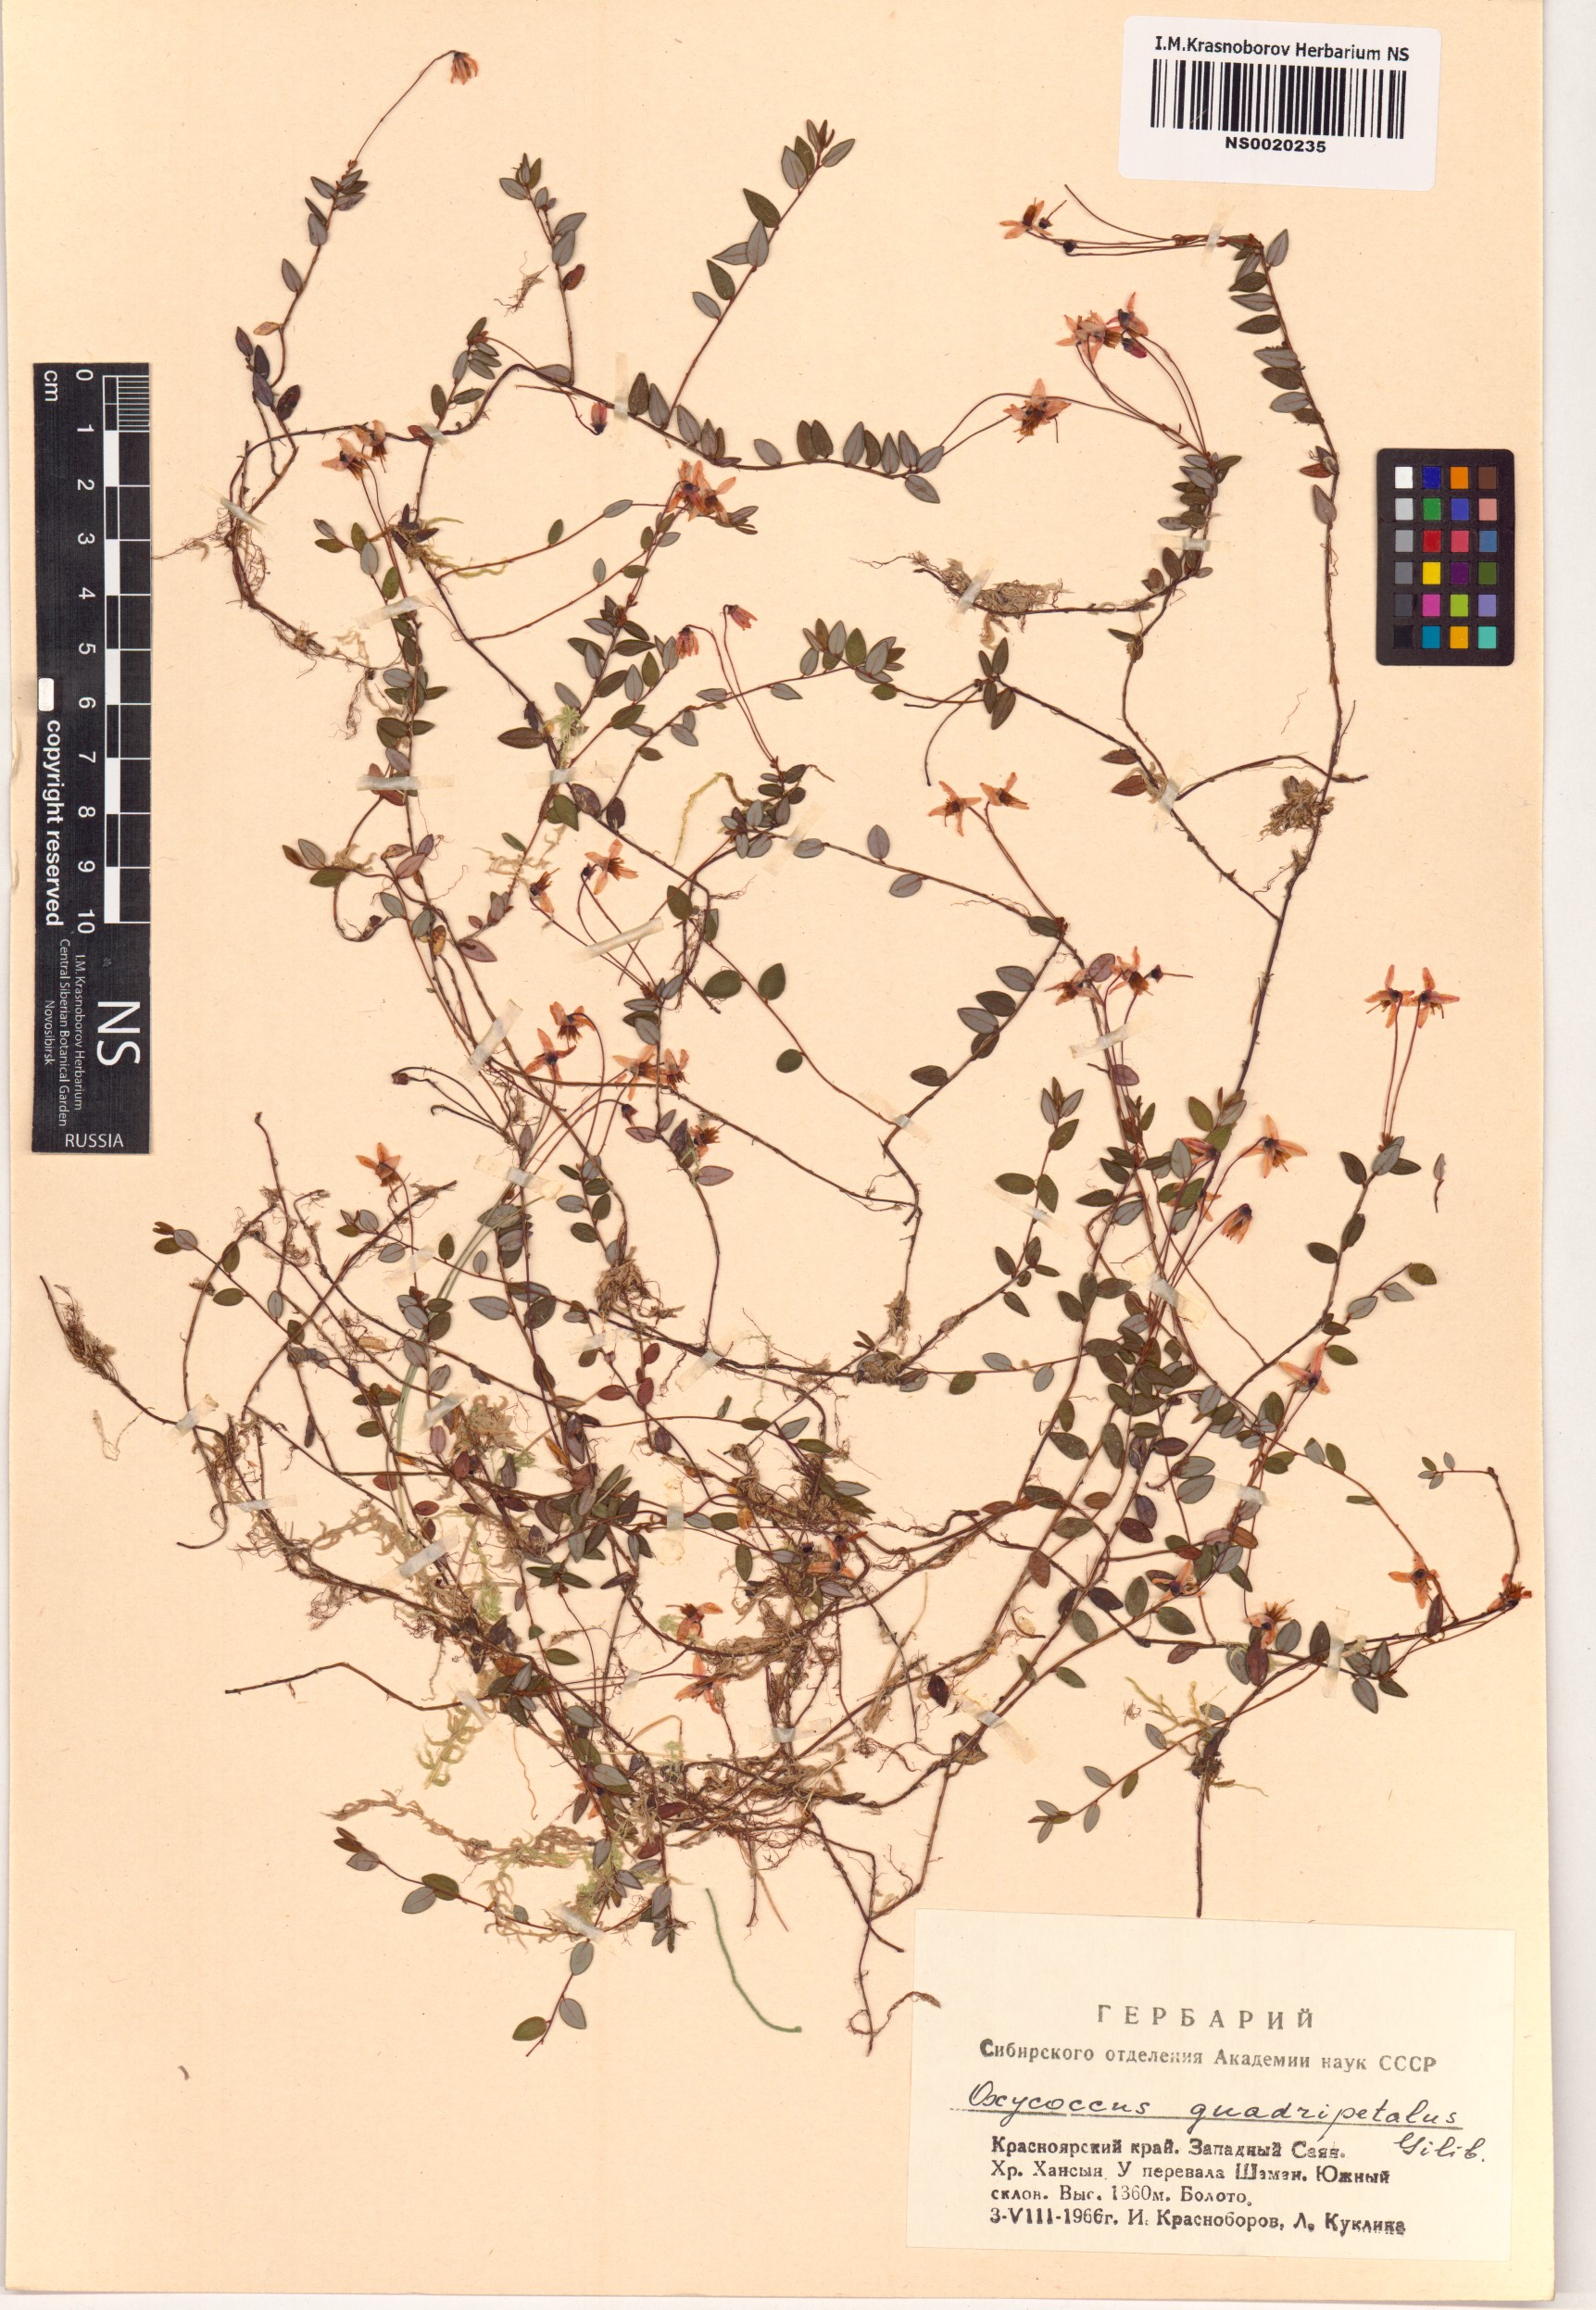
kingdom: Plantae
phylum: Tracheophyta
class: Magnoliopsida
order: Ericales
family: Ericaceae
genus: Vaccinium
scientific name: Vaccinium oxycoccos
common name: Cranberry
